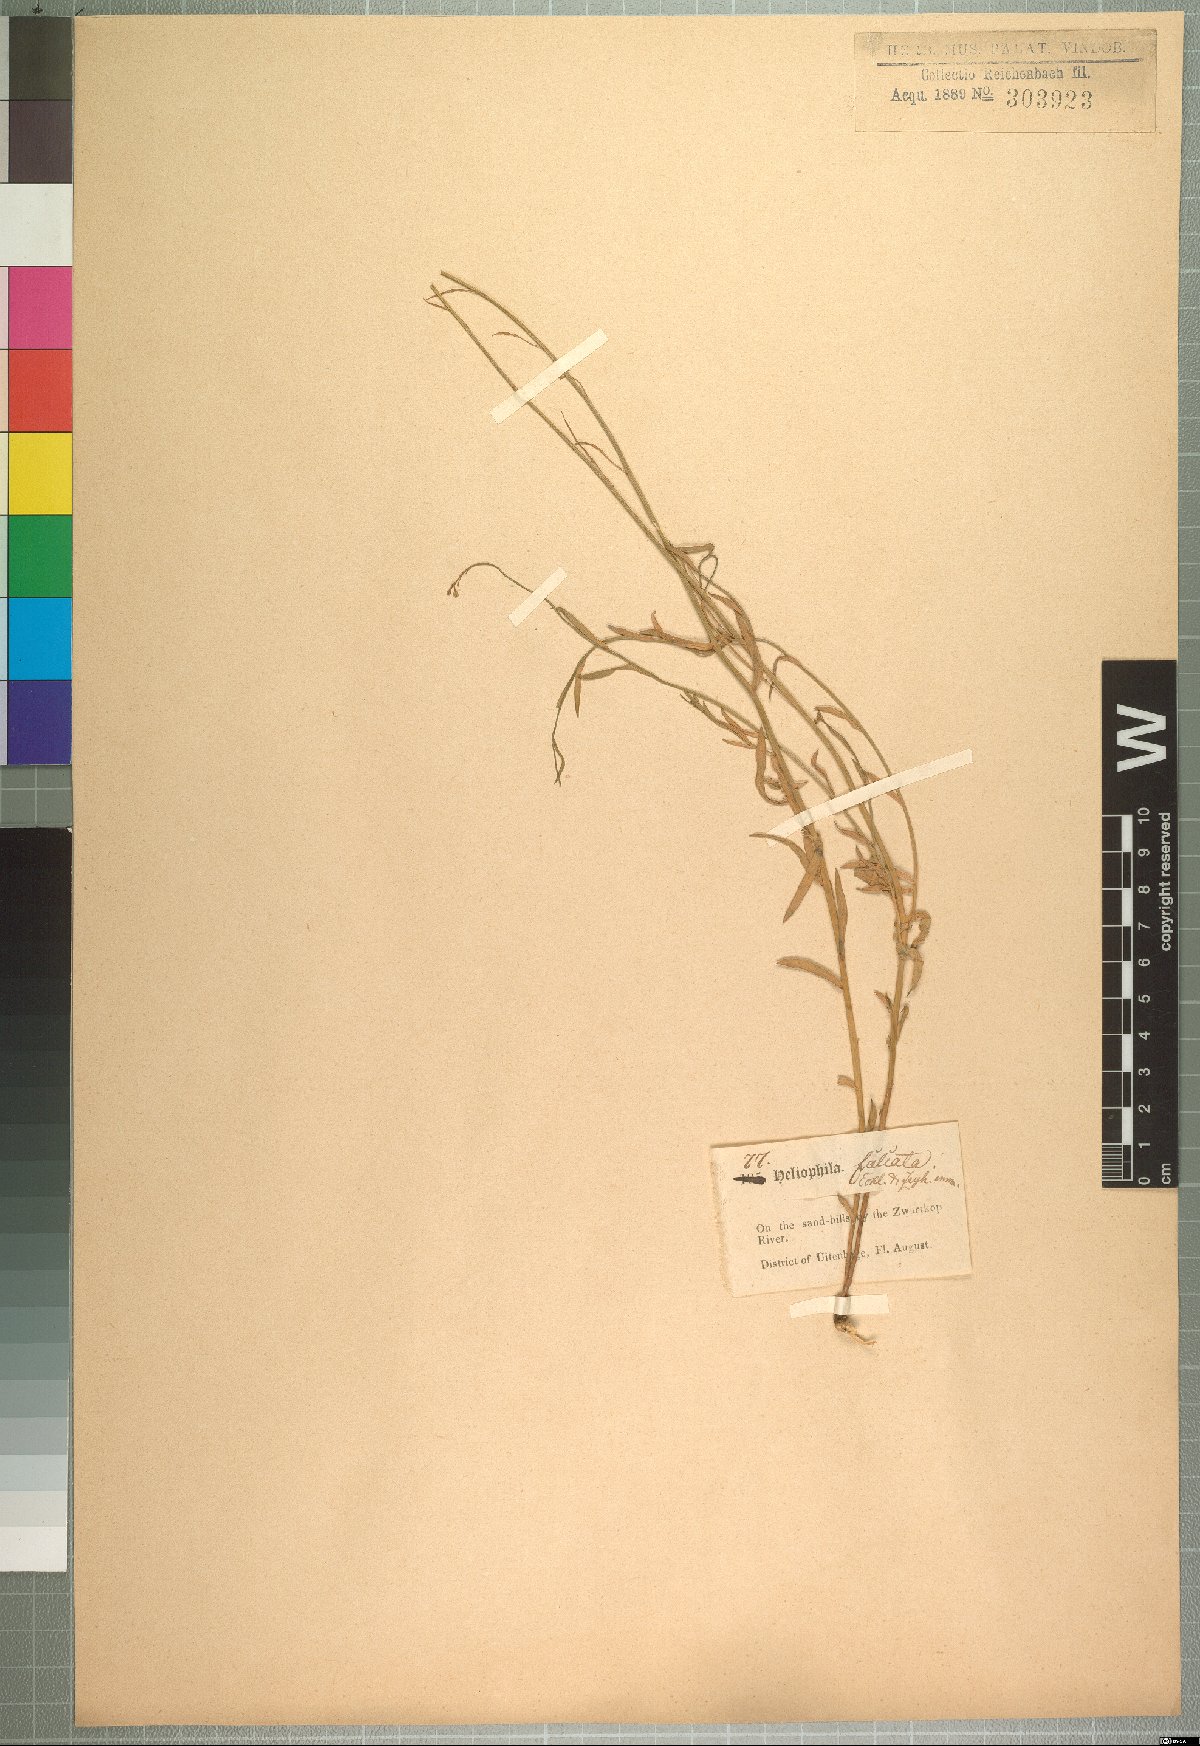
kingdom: Plantae
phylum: Tracheophyta
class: Magnoliopsida
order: Brassicales
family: Brassicaceae
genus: Heliophila
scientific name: Heliophila linearis
